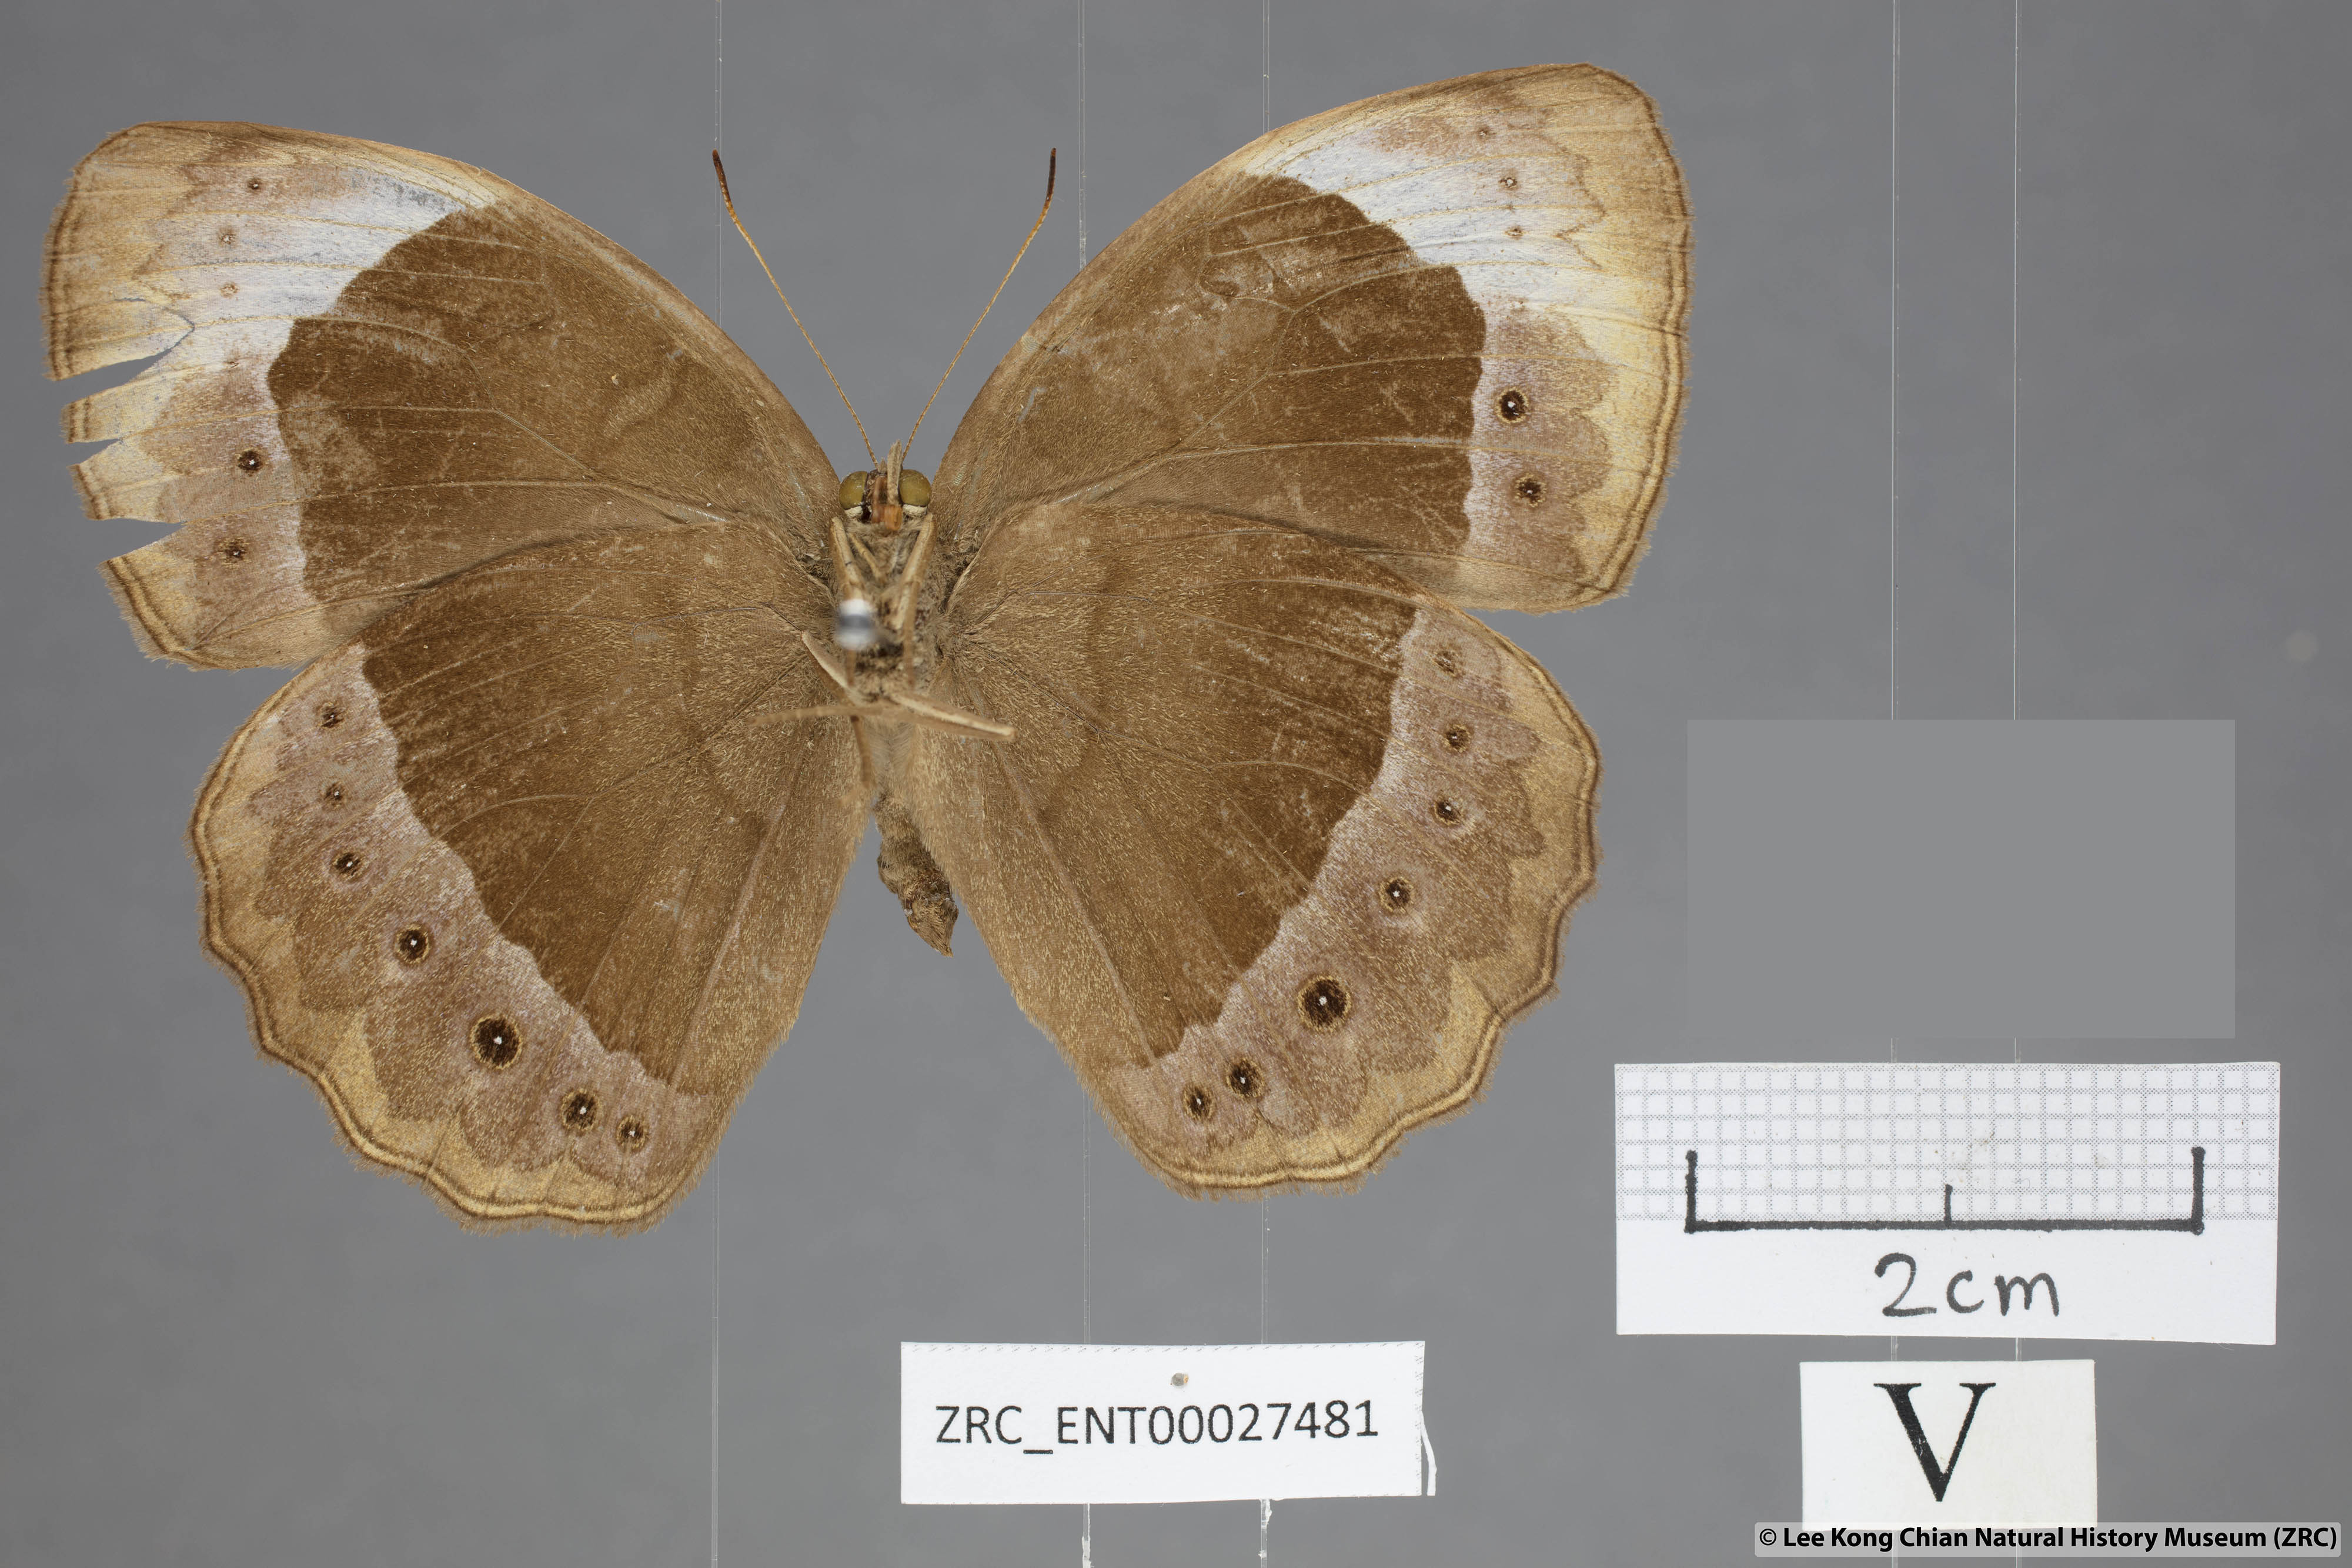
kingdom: Animalia
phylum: Arthropoda
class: Insecta
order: Lepidoptera
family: Nymphalidae
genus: Mycalesis
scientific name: Mycalesis anaxioides
